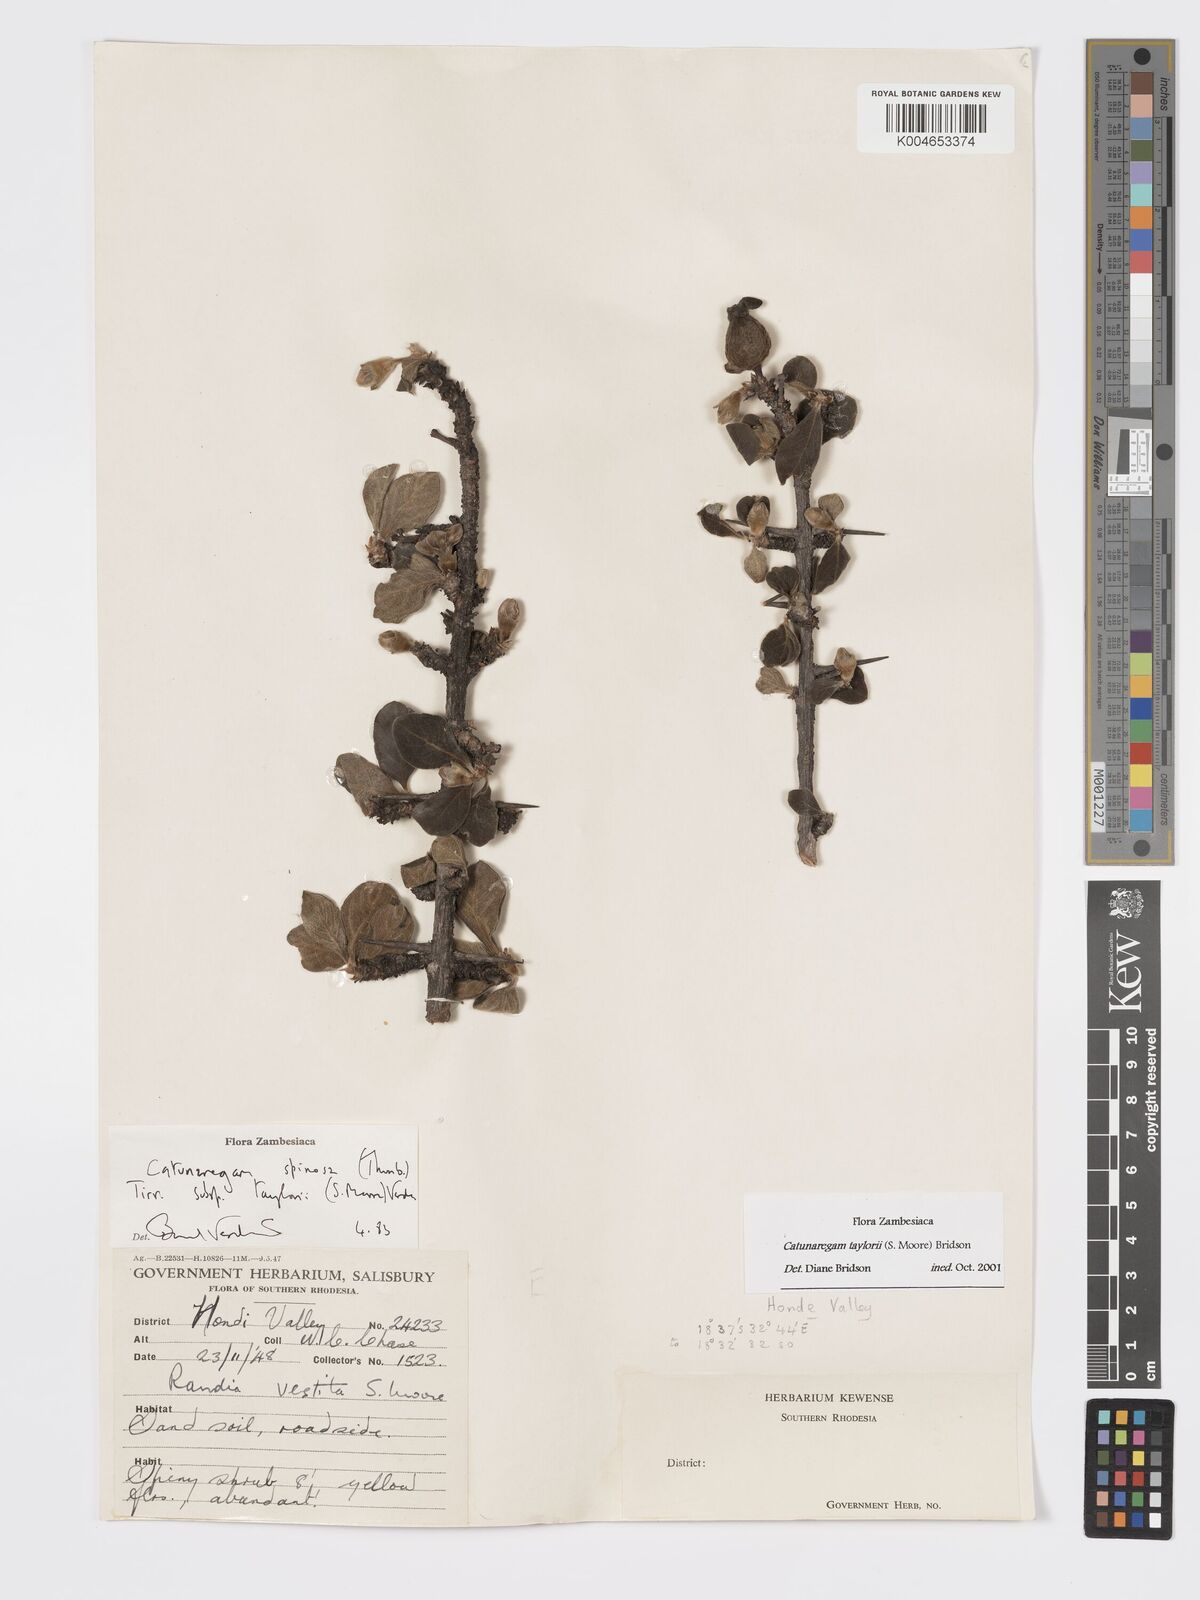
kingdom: Plantae
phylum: Tracheophyta
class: Magnoliopsida
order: Gentianales
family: Rubiaceae
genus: Catunaregam
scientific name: Catunaregam obovata
